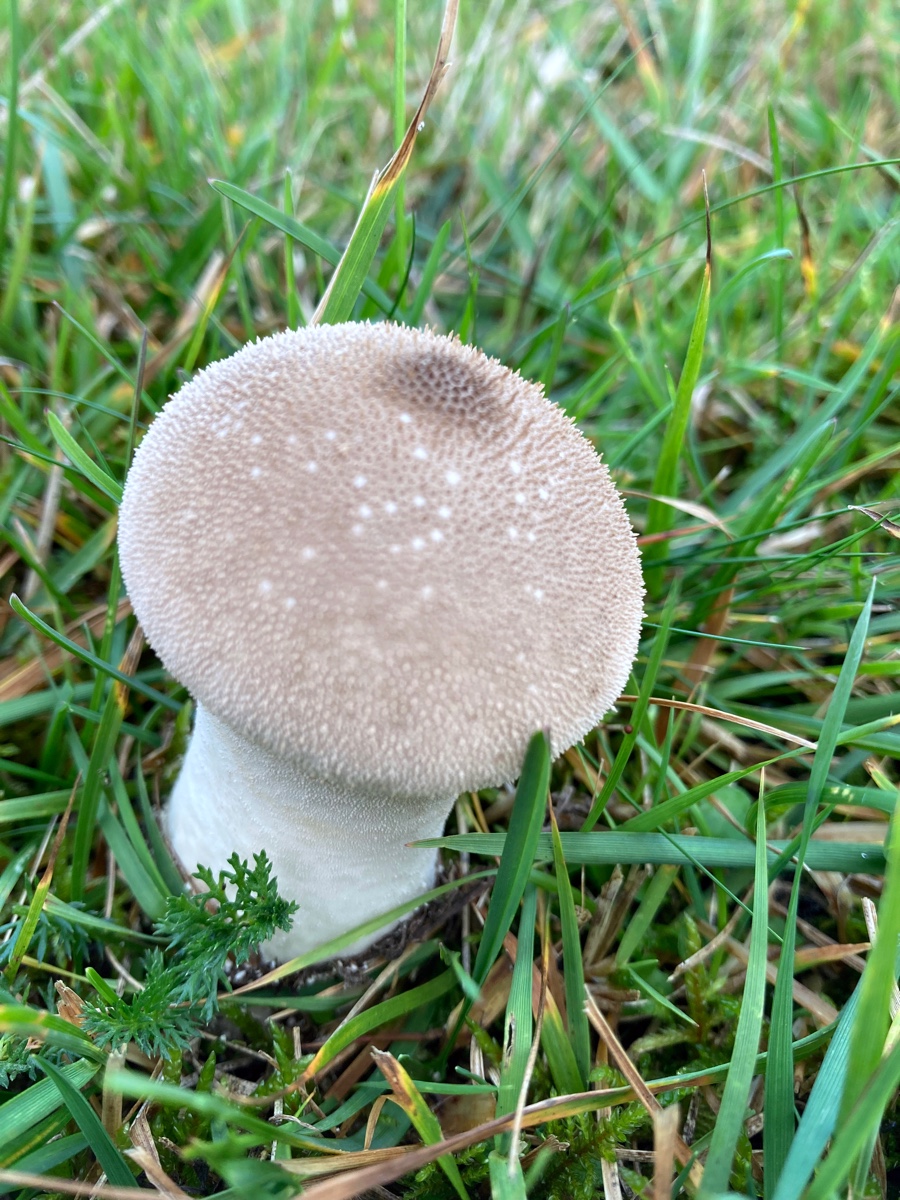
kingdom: Fungi
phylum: Basidiomycota
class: Agaricomycetes
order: Agaricales
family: Lycoperdaceae
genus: Lycoperdon
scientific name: Lycoperdon perlatum
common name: krystal-støvbold
